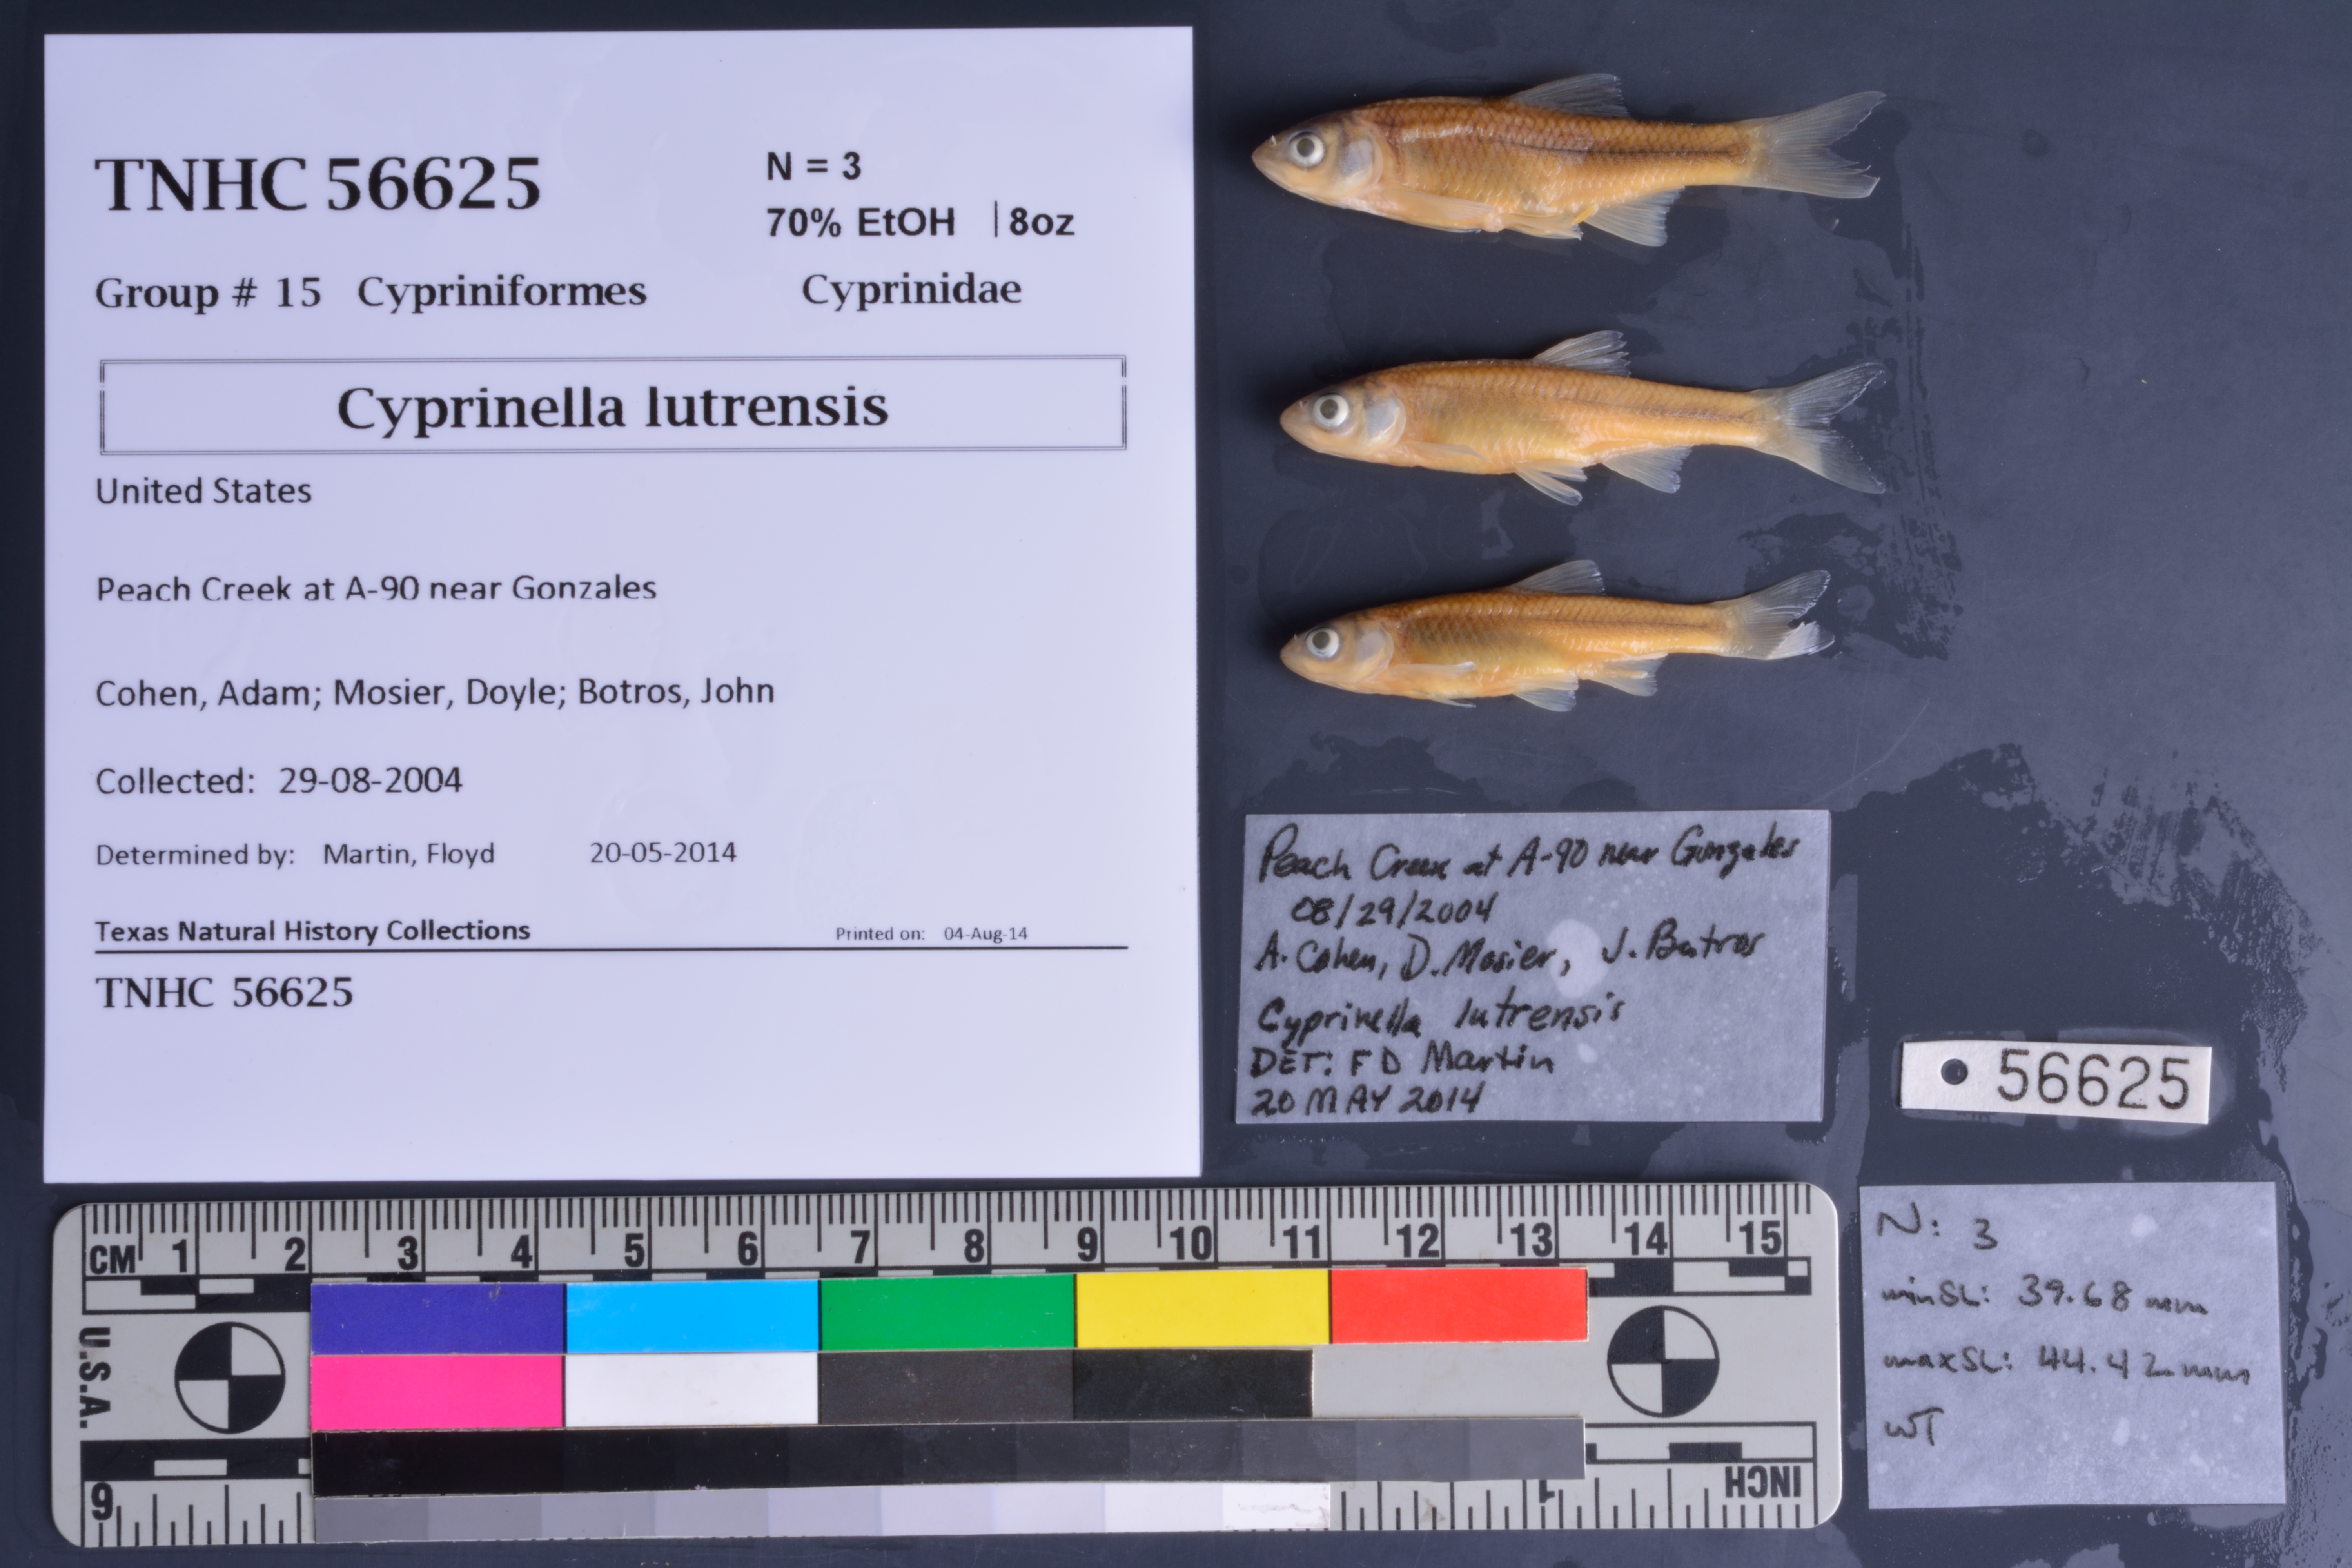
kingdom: Animalia
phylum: Chordata
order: Cypriniformes
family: Cyprinidae
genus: Cyprinella
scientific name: Cyprinella lutrensis
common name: Red shiner
